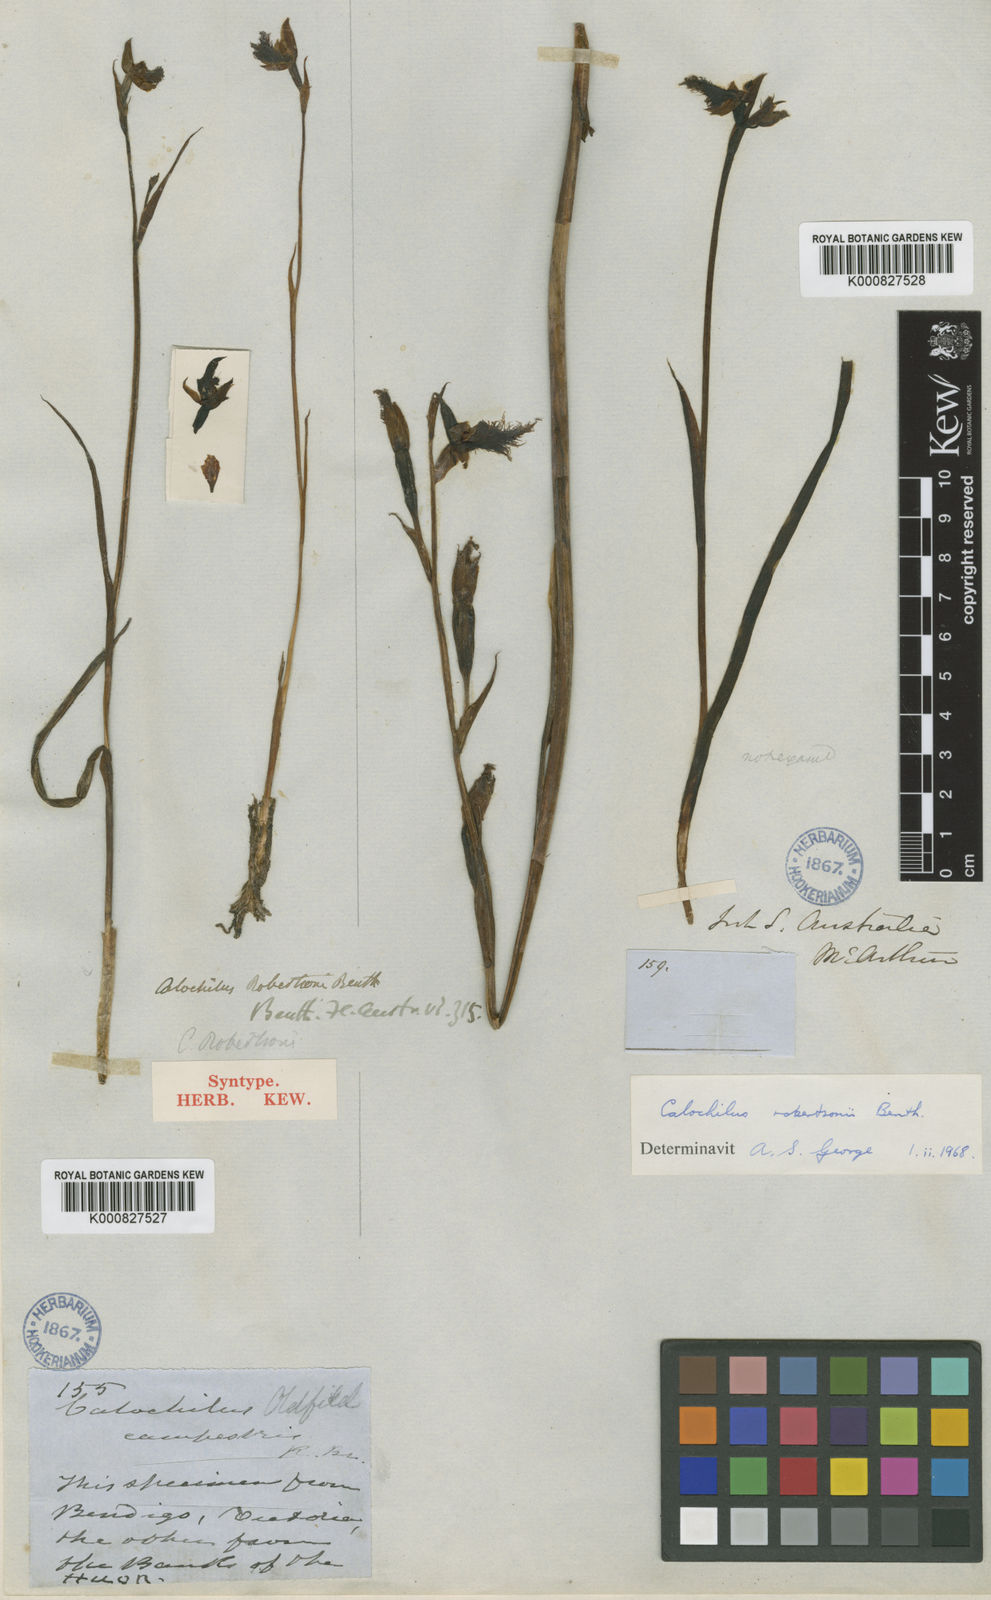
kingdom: Plantae
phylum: Tracheophyta
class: Liliopsida
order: Asparagales
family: Orchidaceae
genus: Calochilus
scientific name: Calochilus robertsonii
